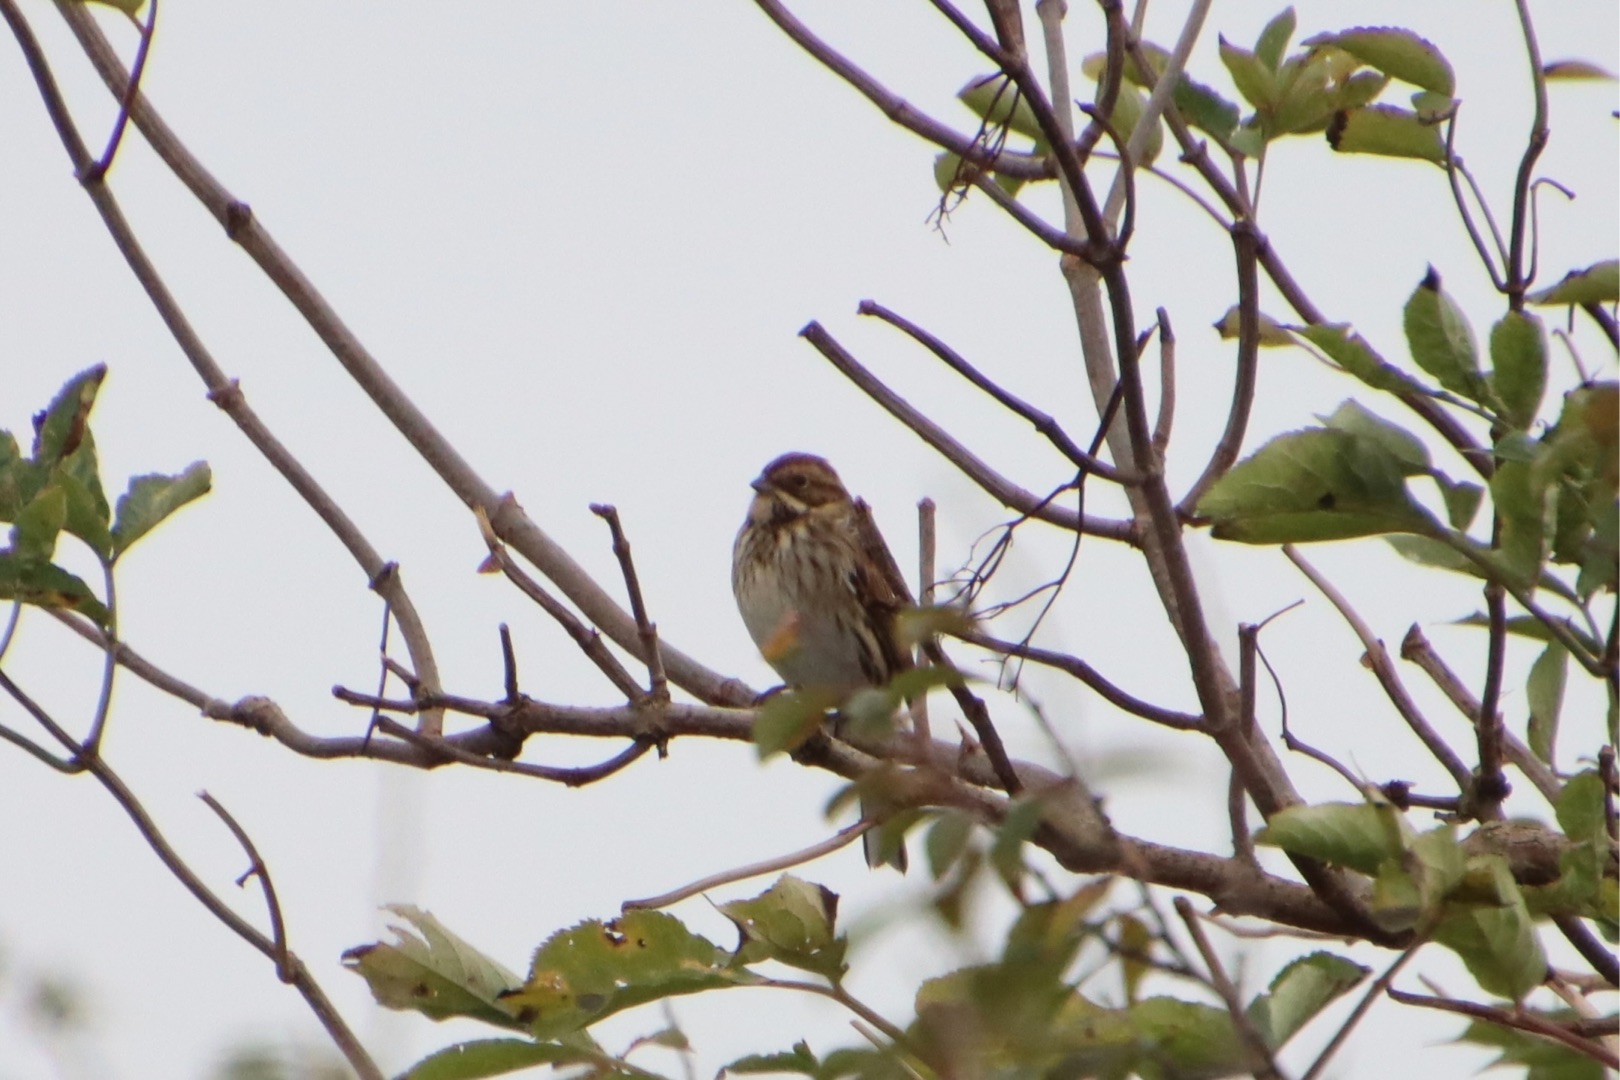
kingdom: Animalia
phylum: Chordata
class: Aves
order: Passeriformes
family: Emberizidae
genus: Emberiza
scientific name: Emberiza schoeniclus
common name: Rørspurv
